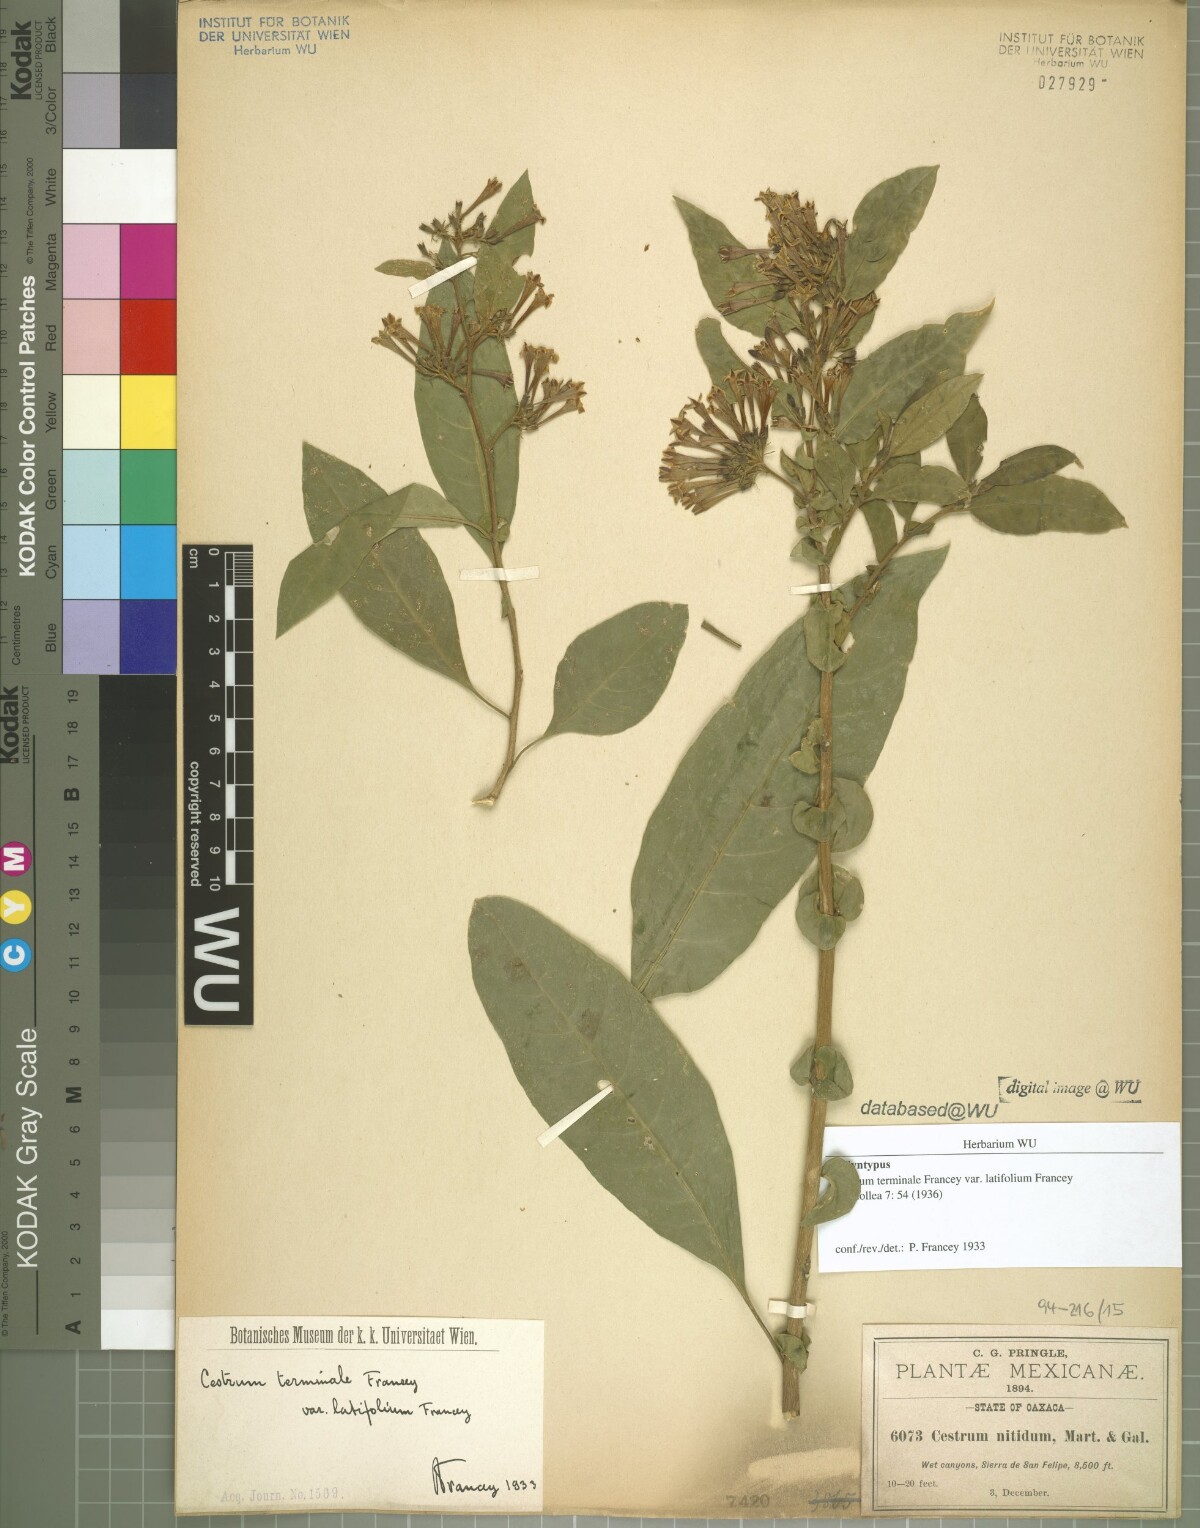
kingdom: Plantae
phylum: Tracheophyta
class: Magnoliopsida
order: Solanales
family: Solanaceae
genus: Cestrum
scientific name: Cestrum nitidum
